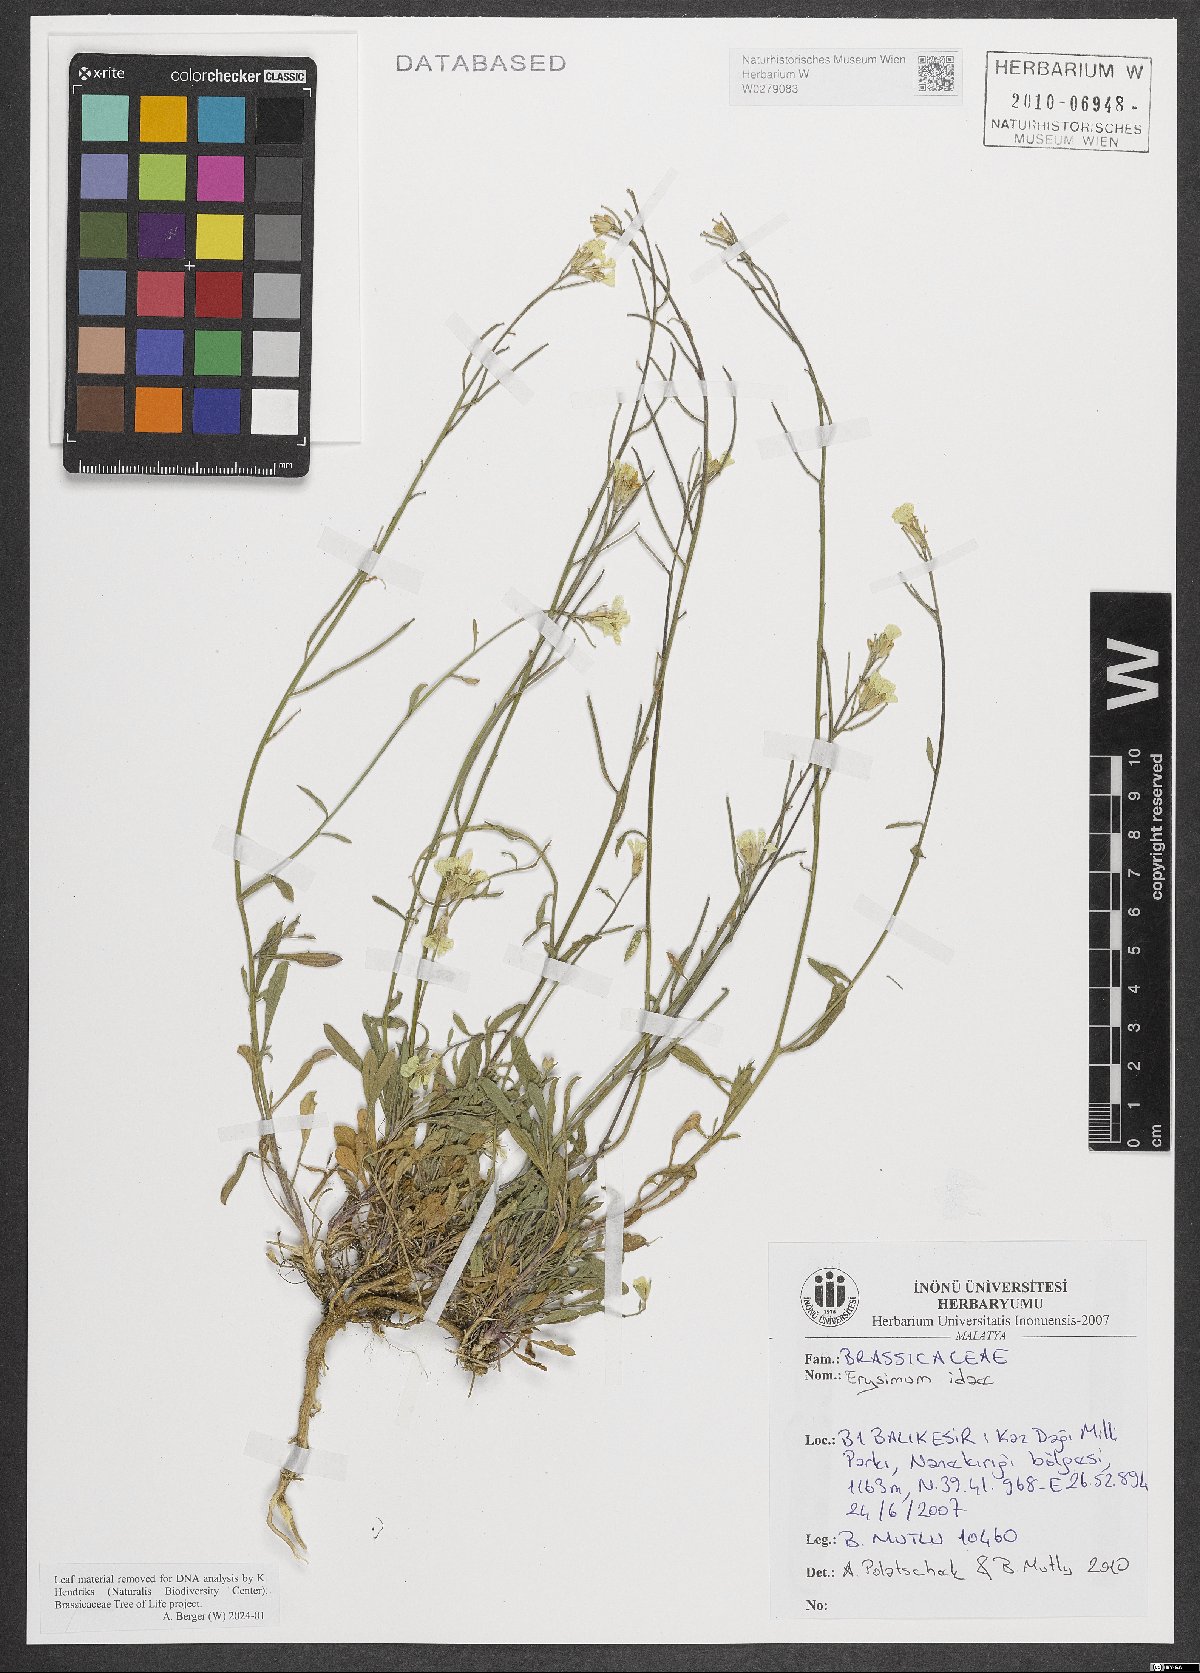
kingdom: Plantae
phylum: Tracheophyta
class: Magnoliopsida
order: Brassicales
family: Brassicaceae
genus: Erysimum
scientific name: Erysimum idae
